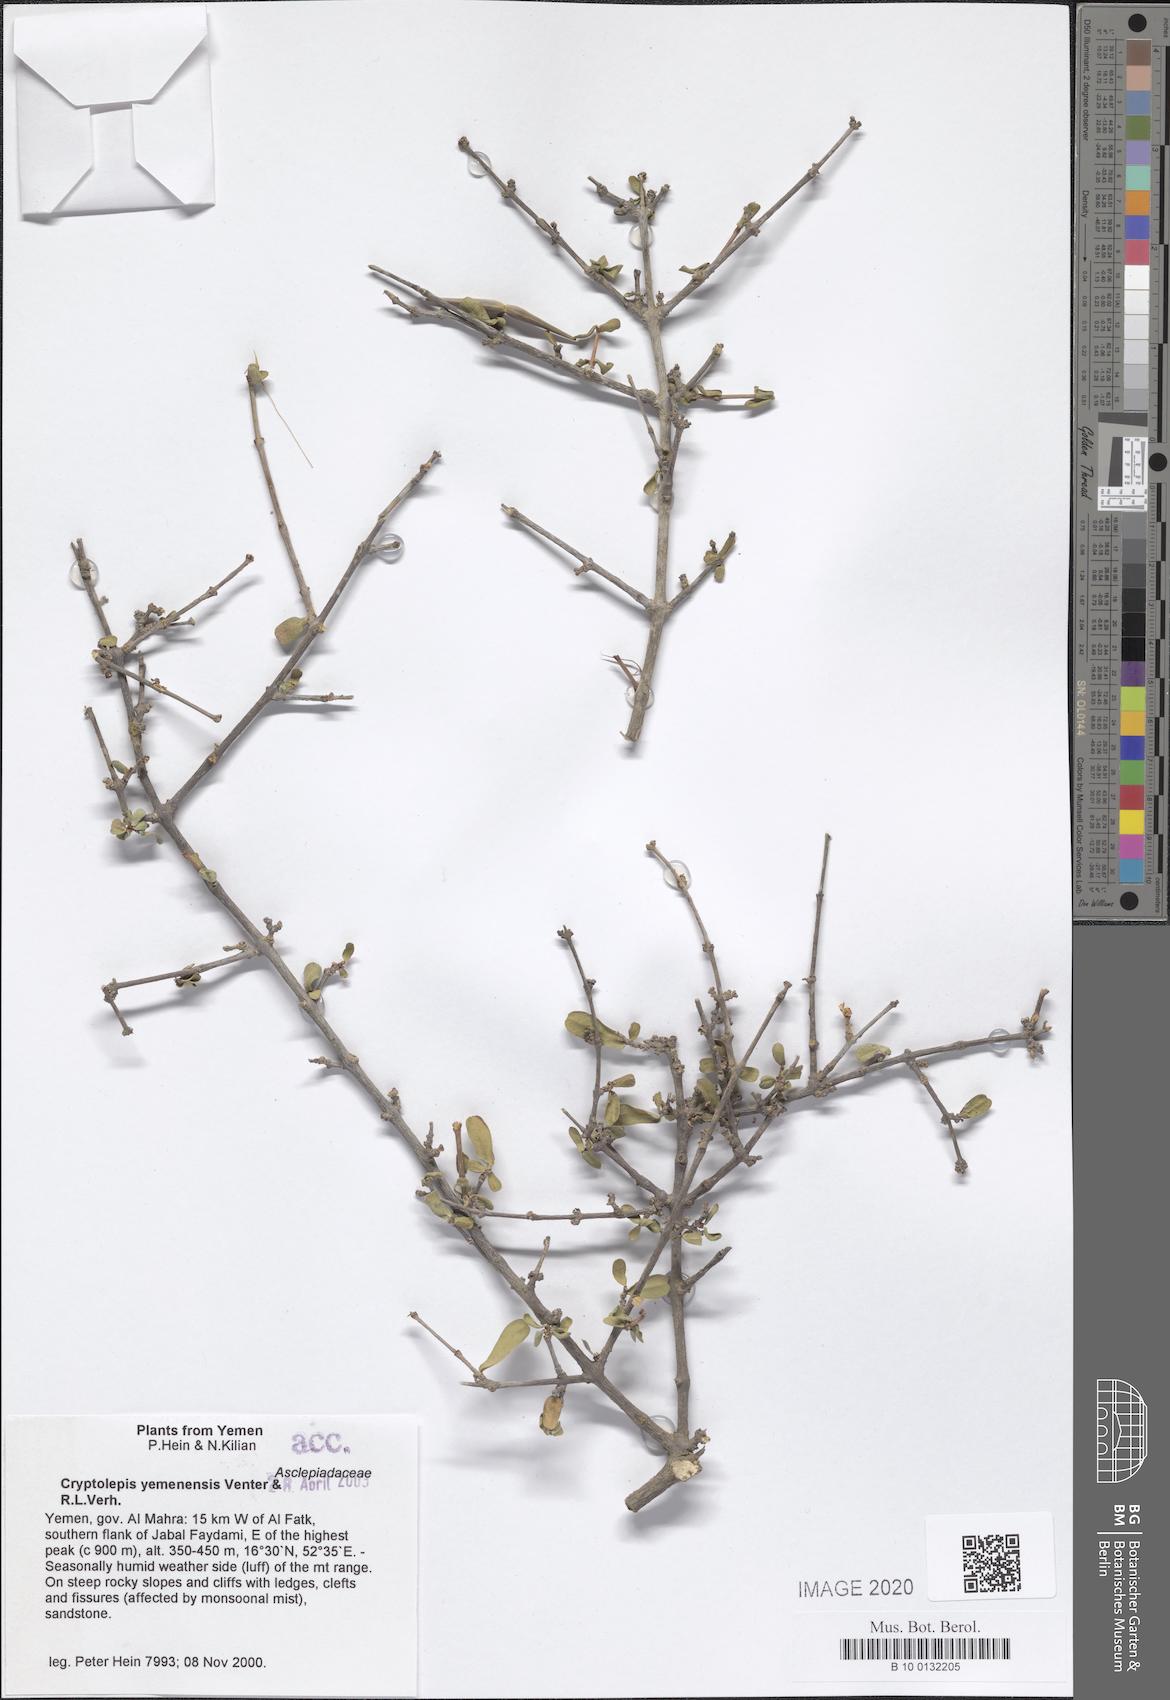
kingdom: Plantae
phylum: Tracheophyta
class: Magnoliopsida
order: Gentianales
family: Apocynaceae
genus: Cryptolepis
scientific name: Cryptolepis yemenensis
